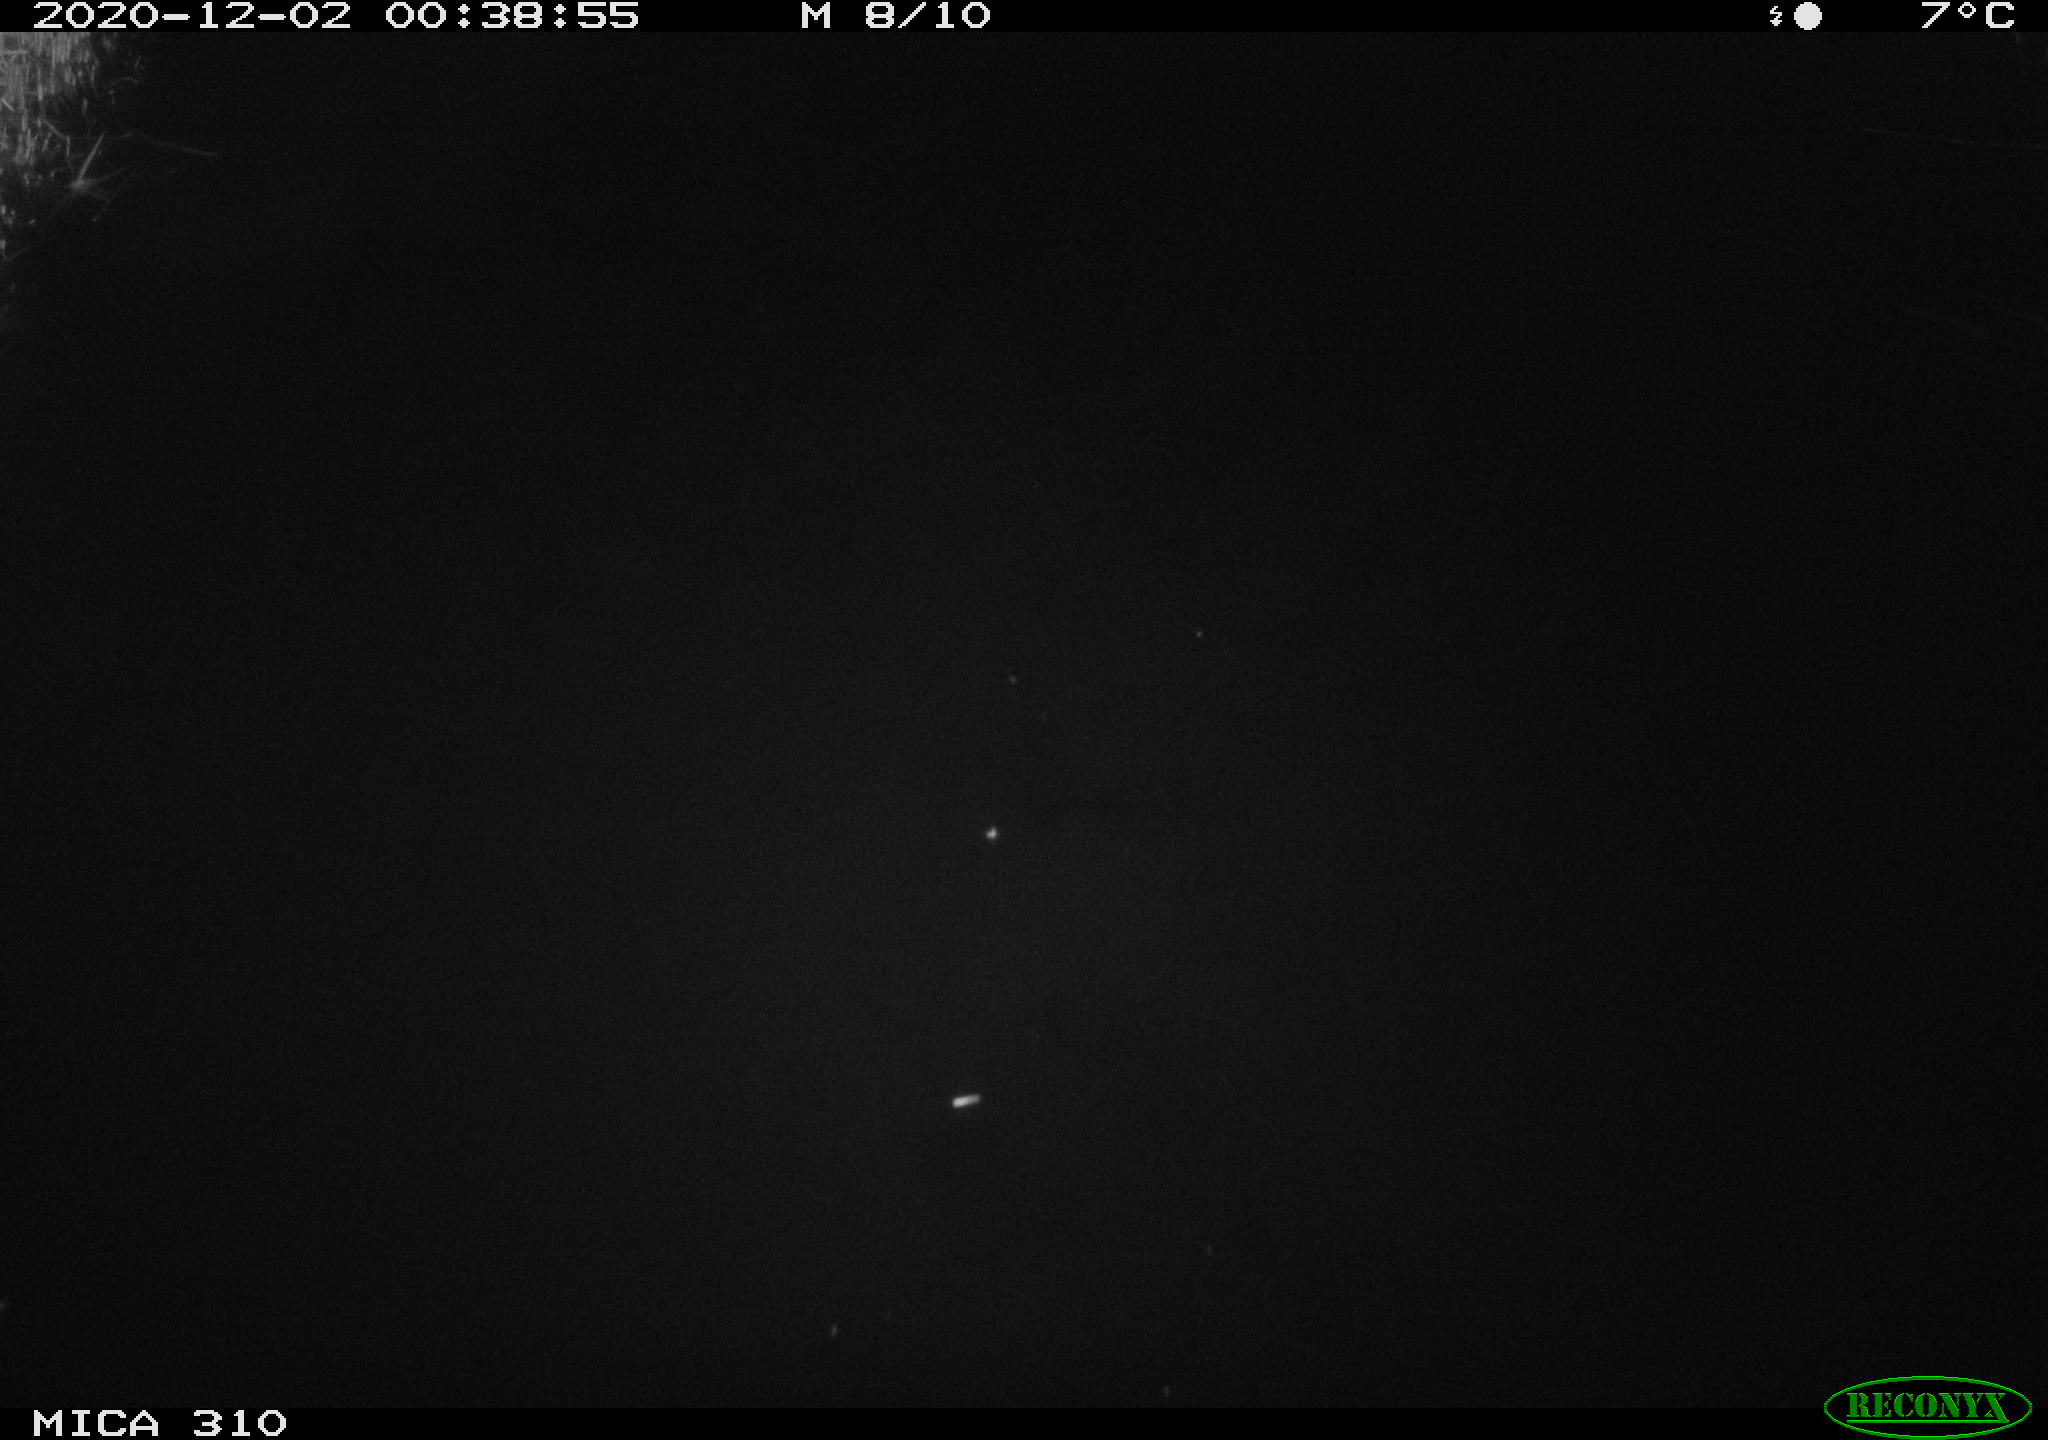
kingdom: Animalia
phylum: Chordata
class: Mammalia
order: Rodentia
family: Muridae
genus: Rattus
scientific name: Rattus norvegicus
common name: Brown rat
